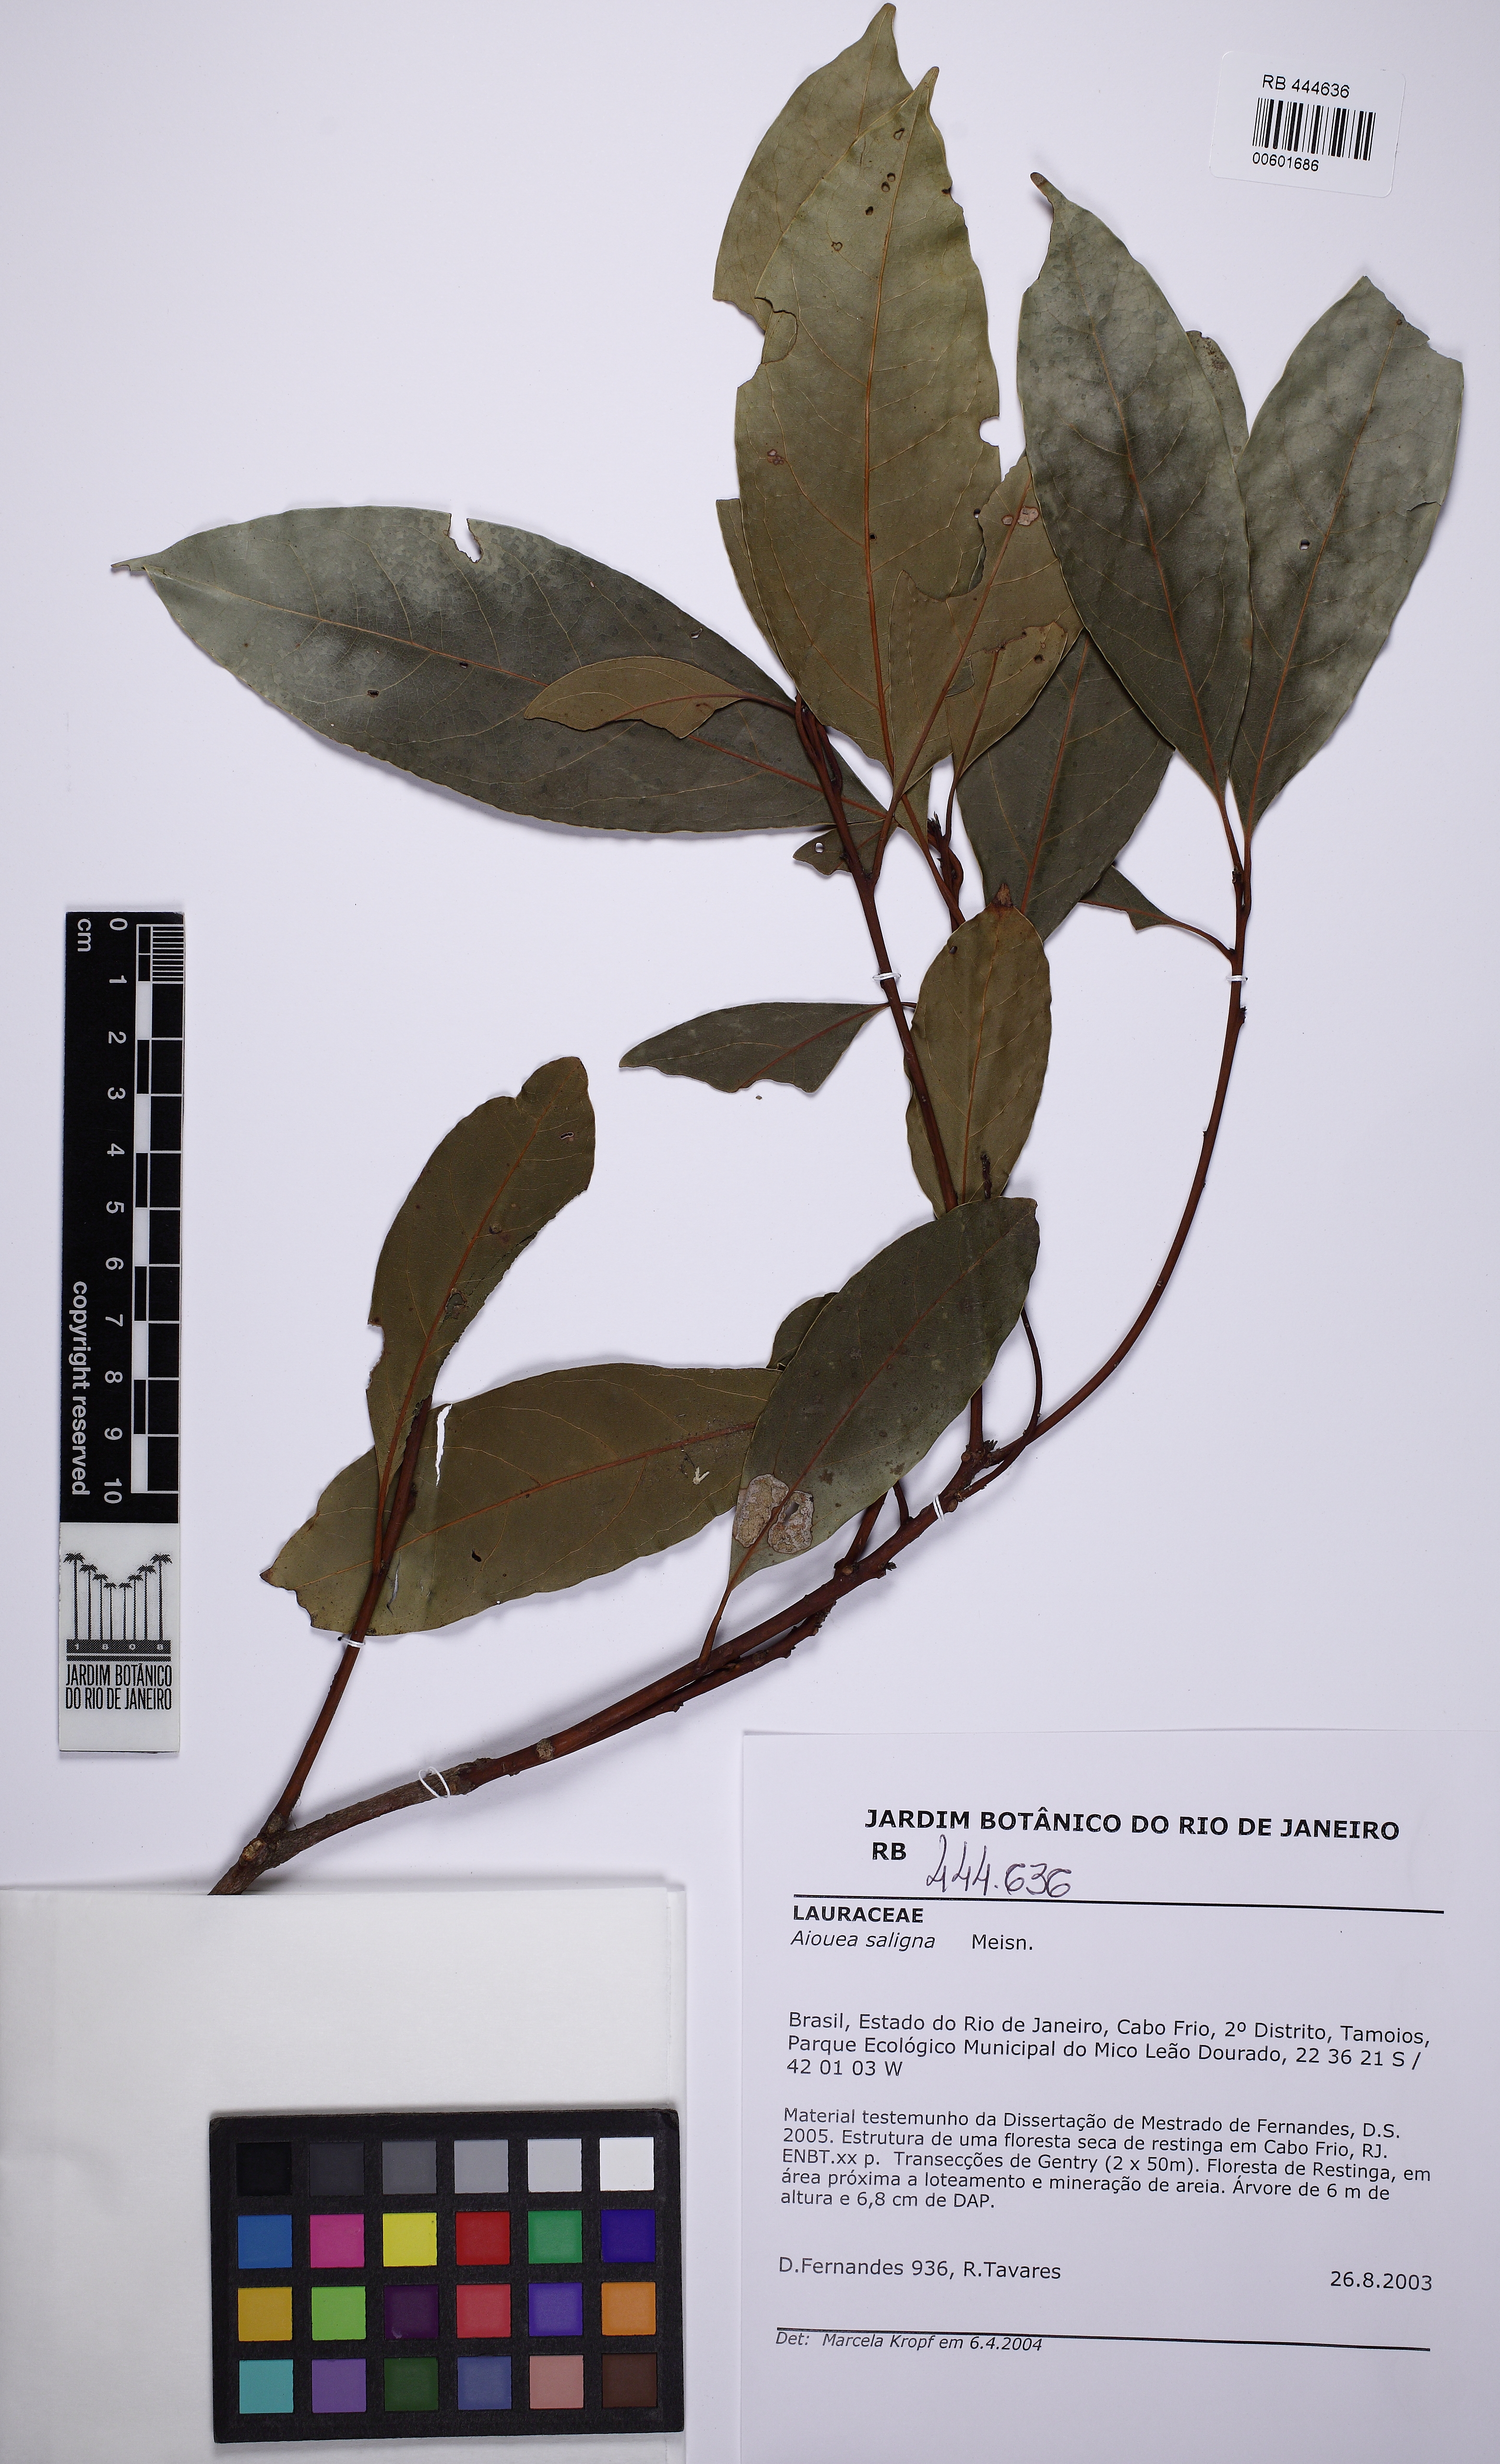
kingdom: Plantae
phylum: Tracheophyta
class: Magnoliopsida
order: Laurales
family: Lauraceae
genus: Aiouea
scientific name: Aiouea saligna
